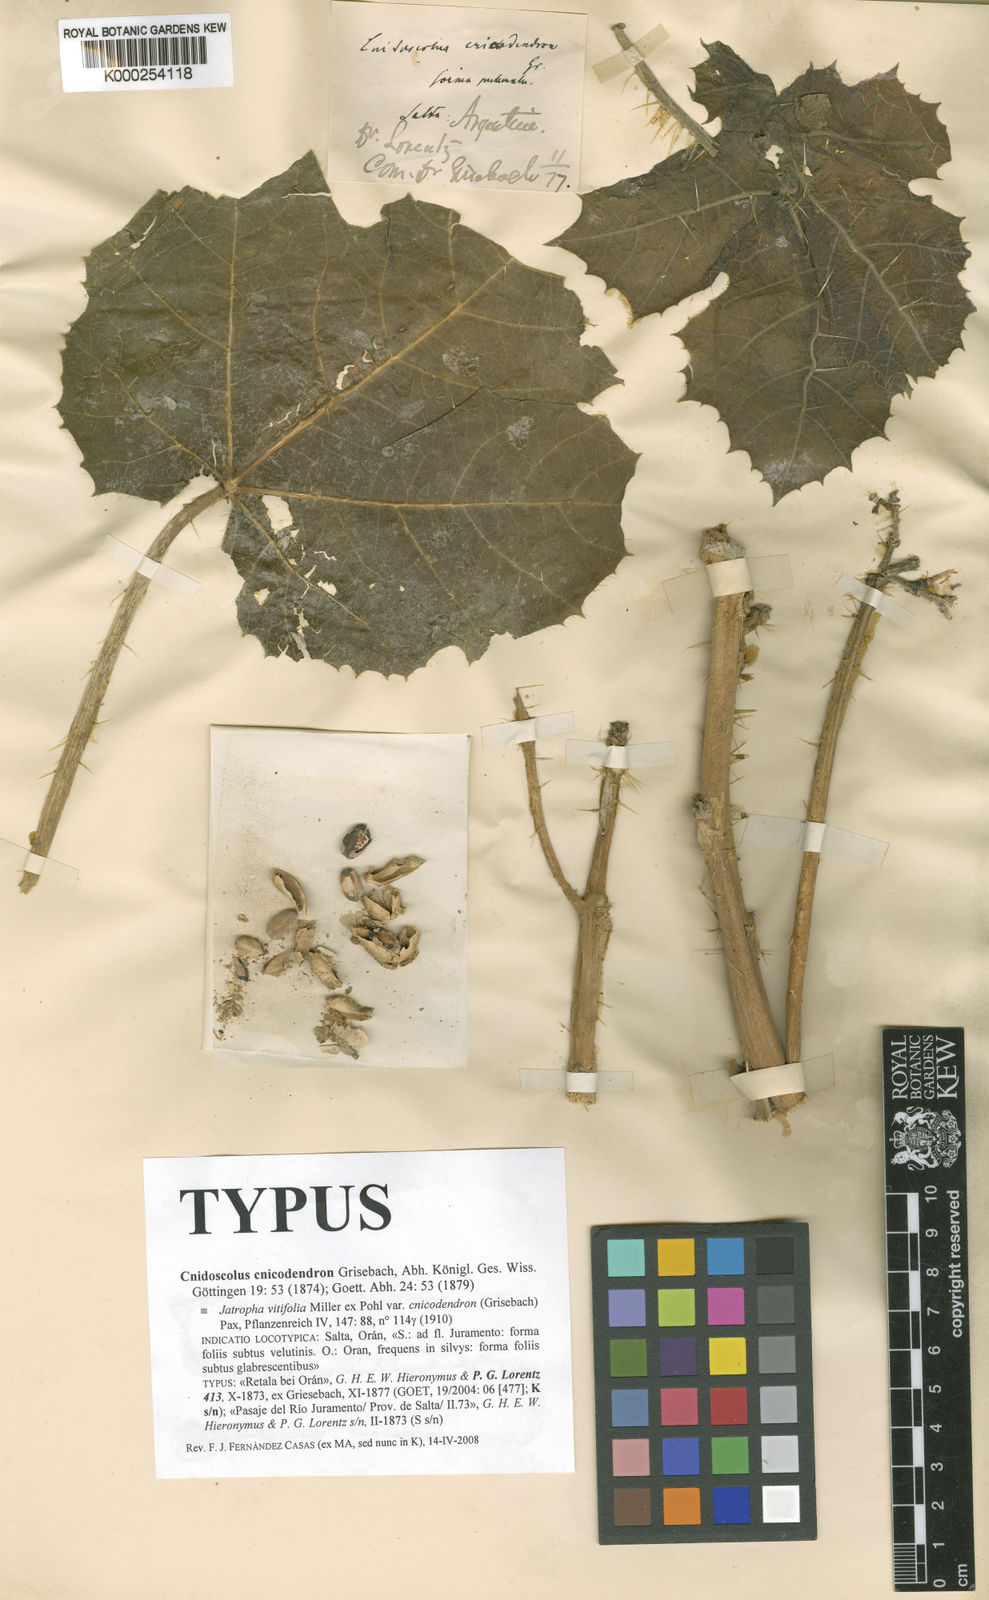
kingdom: Plantae
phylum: Tracheophyta
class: Magnoliopsida
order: Malpighiales
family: Euphorbiaceae
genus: Cnidoscolus
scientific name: Cnidoscolus vitifolius
